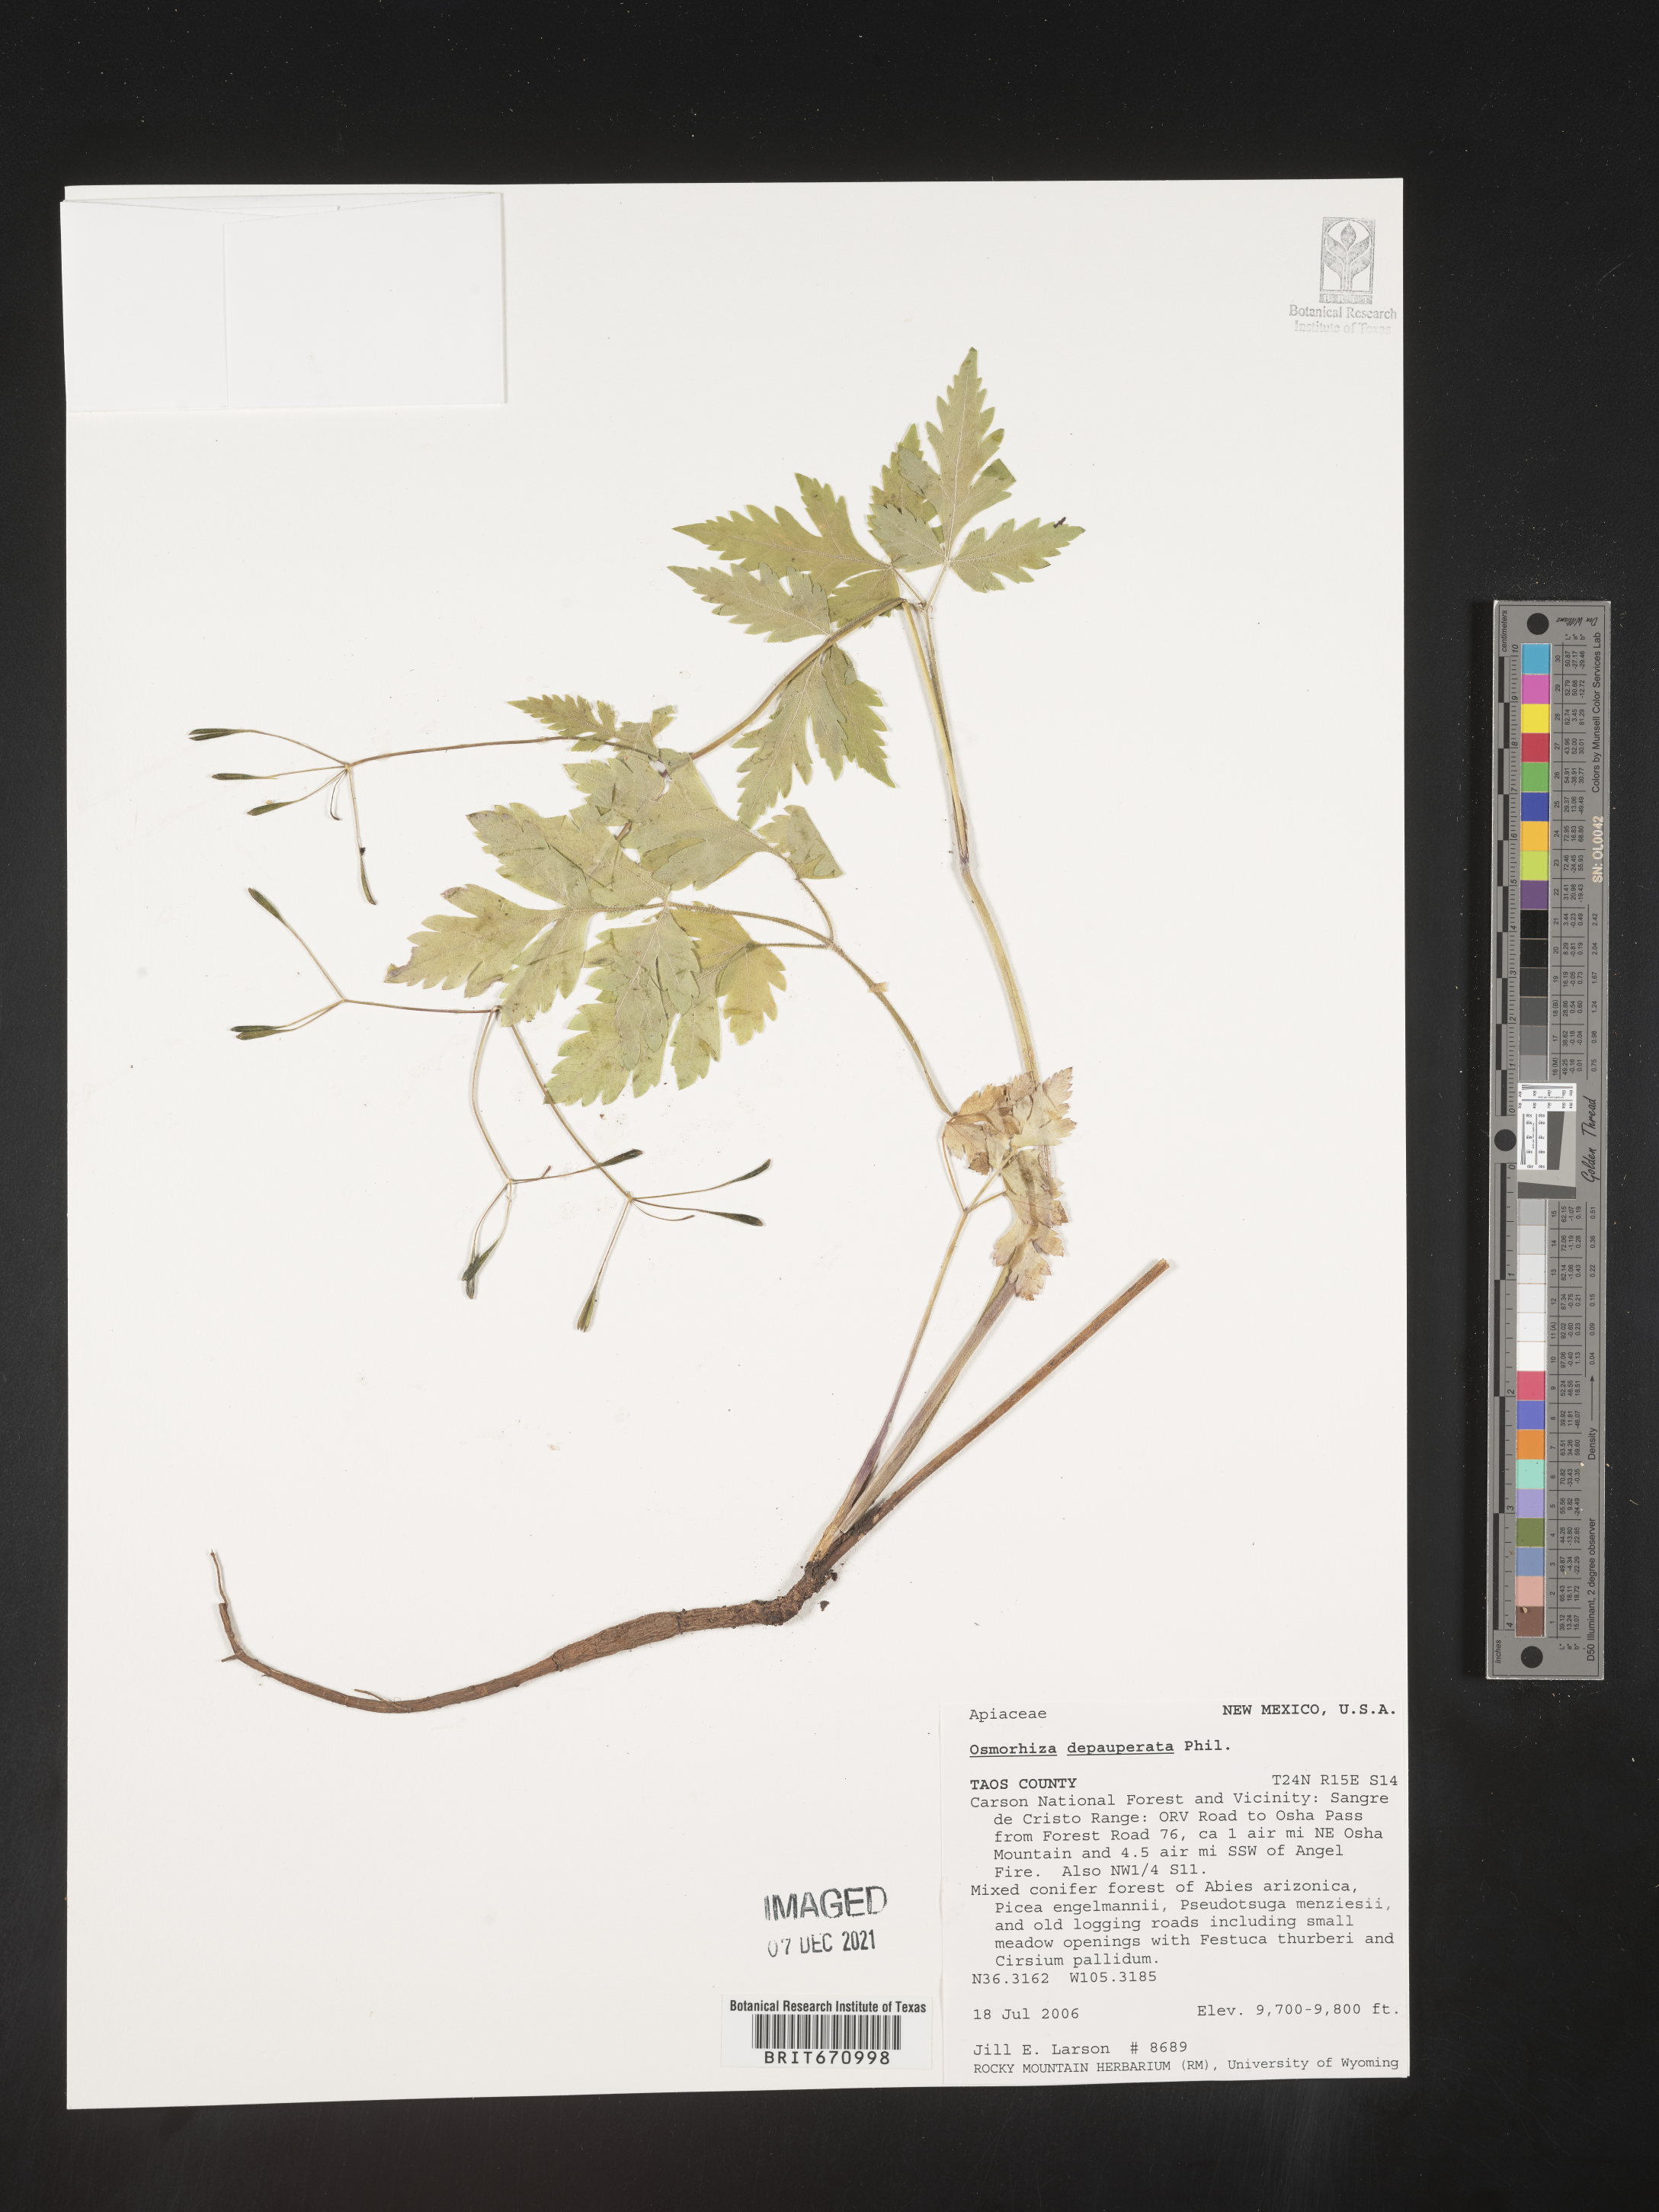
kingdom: Plantae
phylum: Tracheophyta
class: Magnoliopsida
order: Apiales
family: Apiaceae
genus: Osmorhiza
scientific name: Osmorhiza depauperata
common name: Blunt sweet cicely
